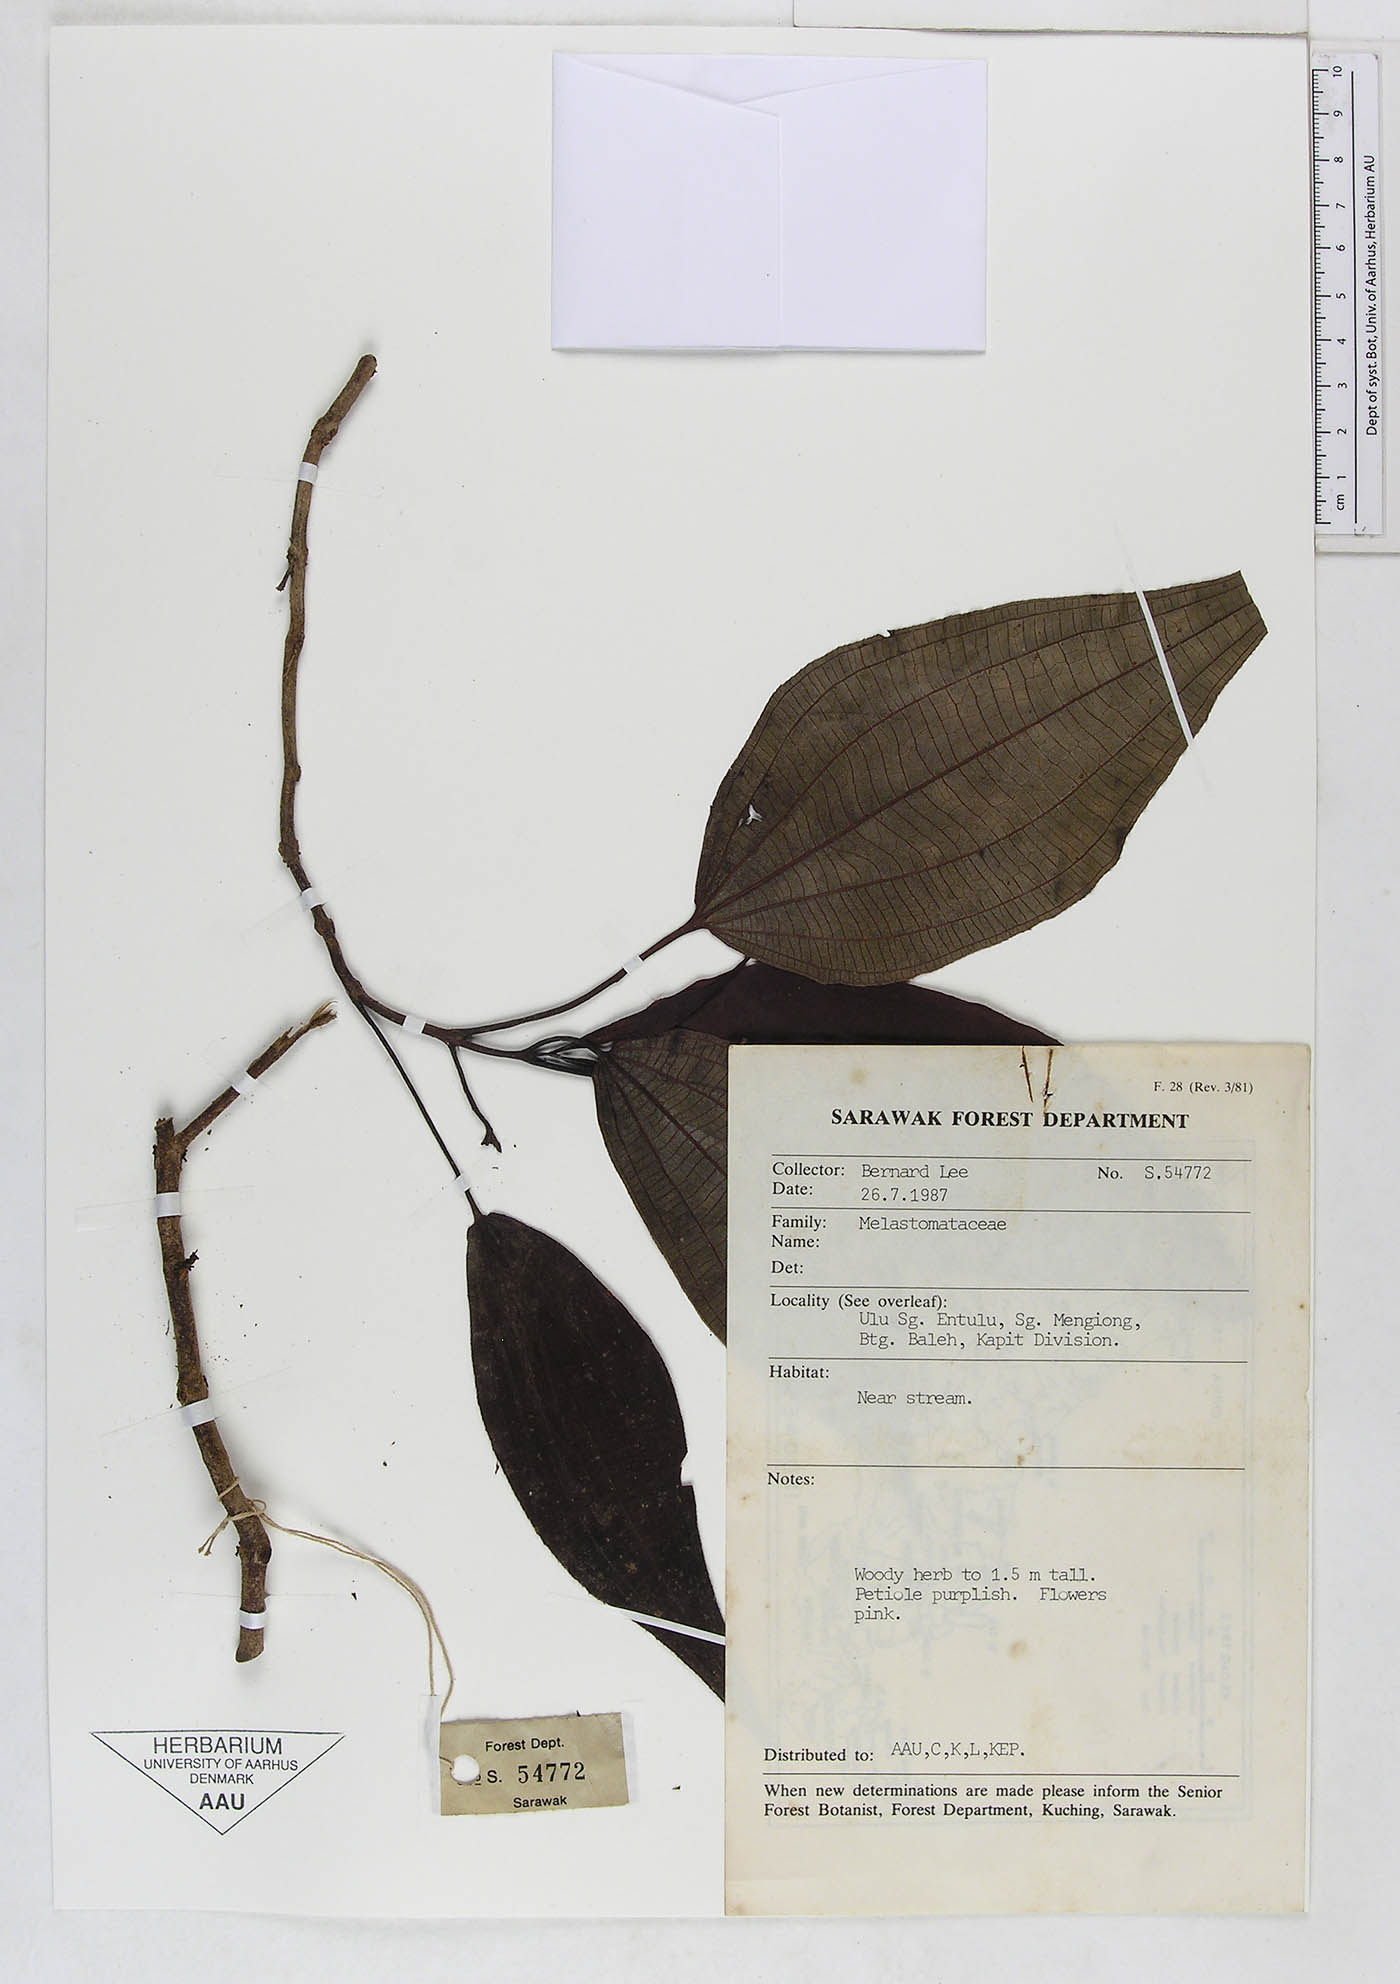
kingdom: Plantae
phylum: Tracheophyta
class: Magnoliopsida
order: Myrtales
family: Melastomataceae
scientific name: Melastomataceae
